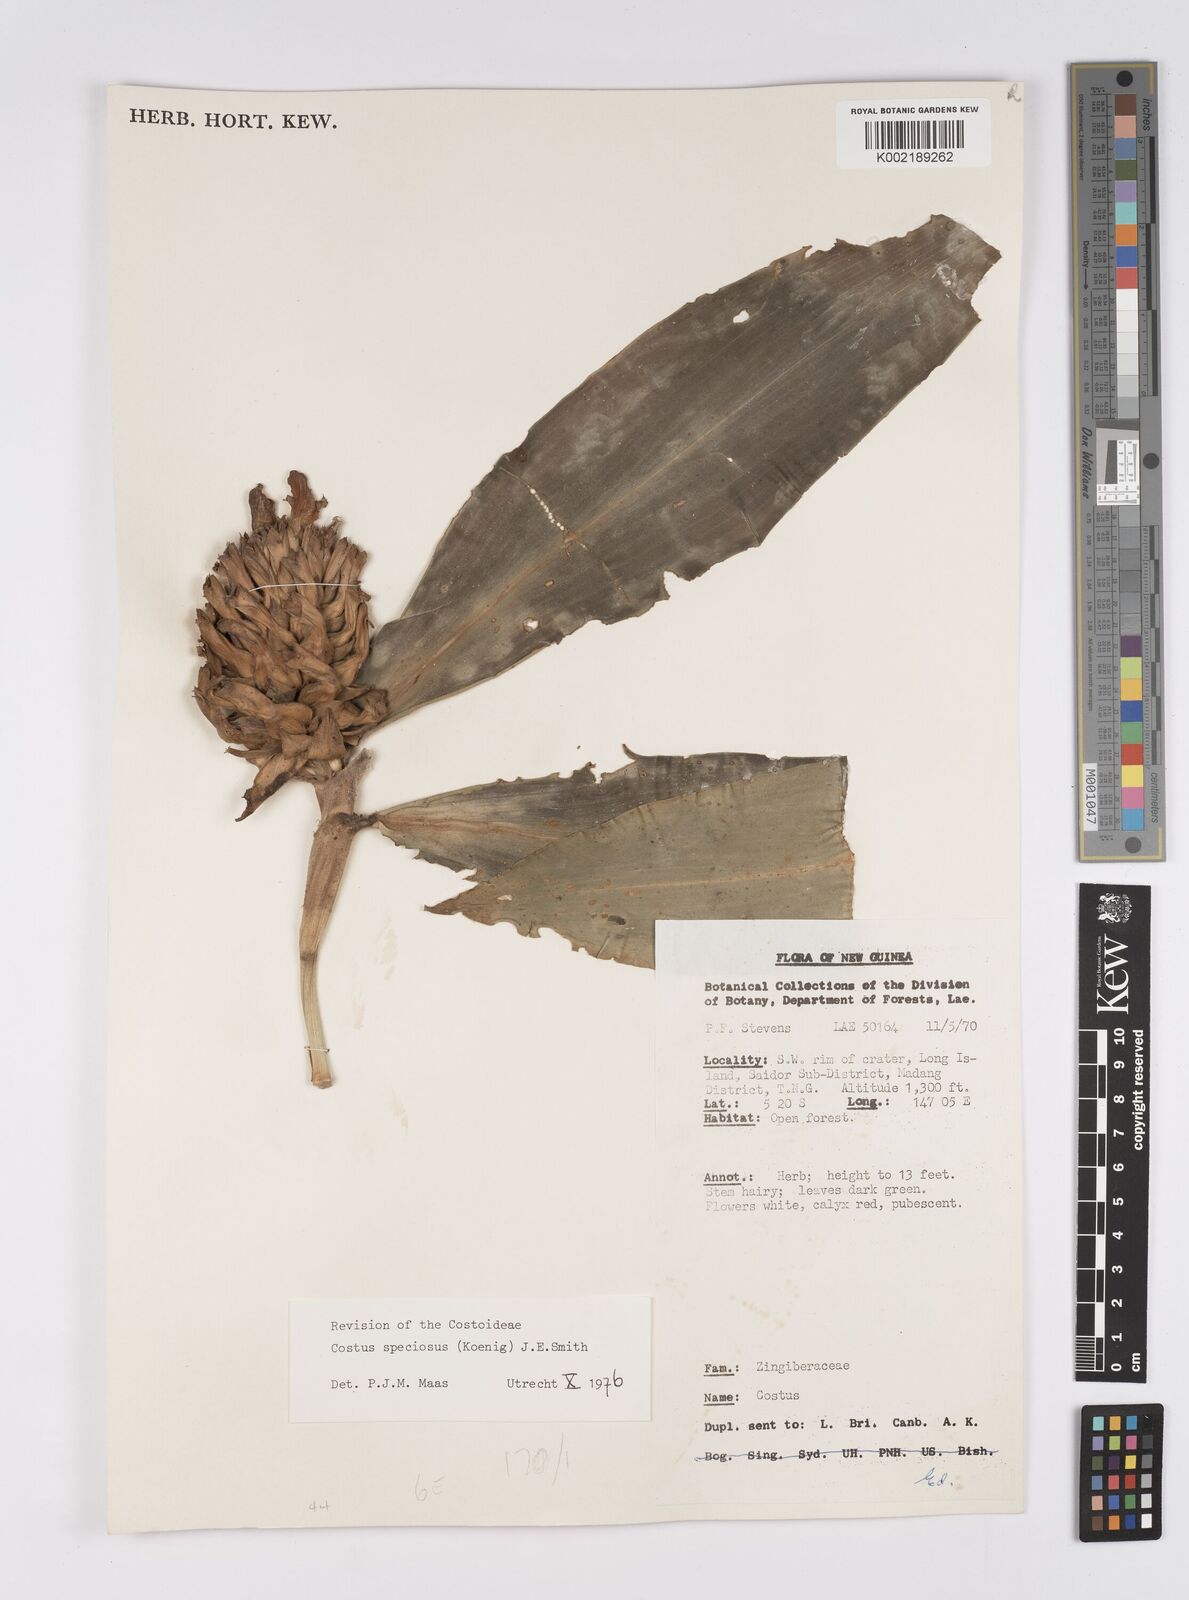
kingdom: Plantae
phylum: Tracheophyta
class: Liliopsida
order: Zingiberales
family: Costaceae
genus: Hellenia
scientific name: Hellenia speciosa
